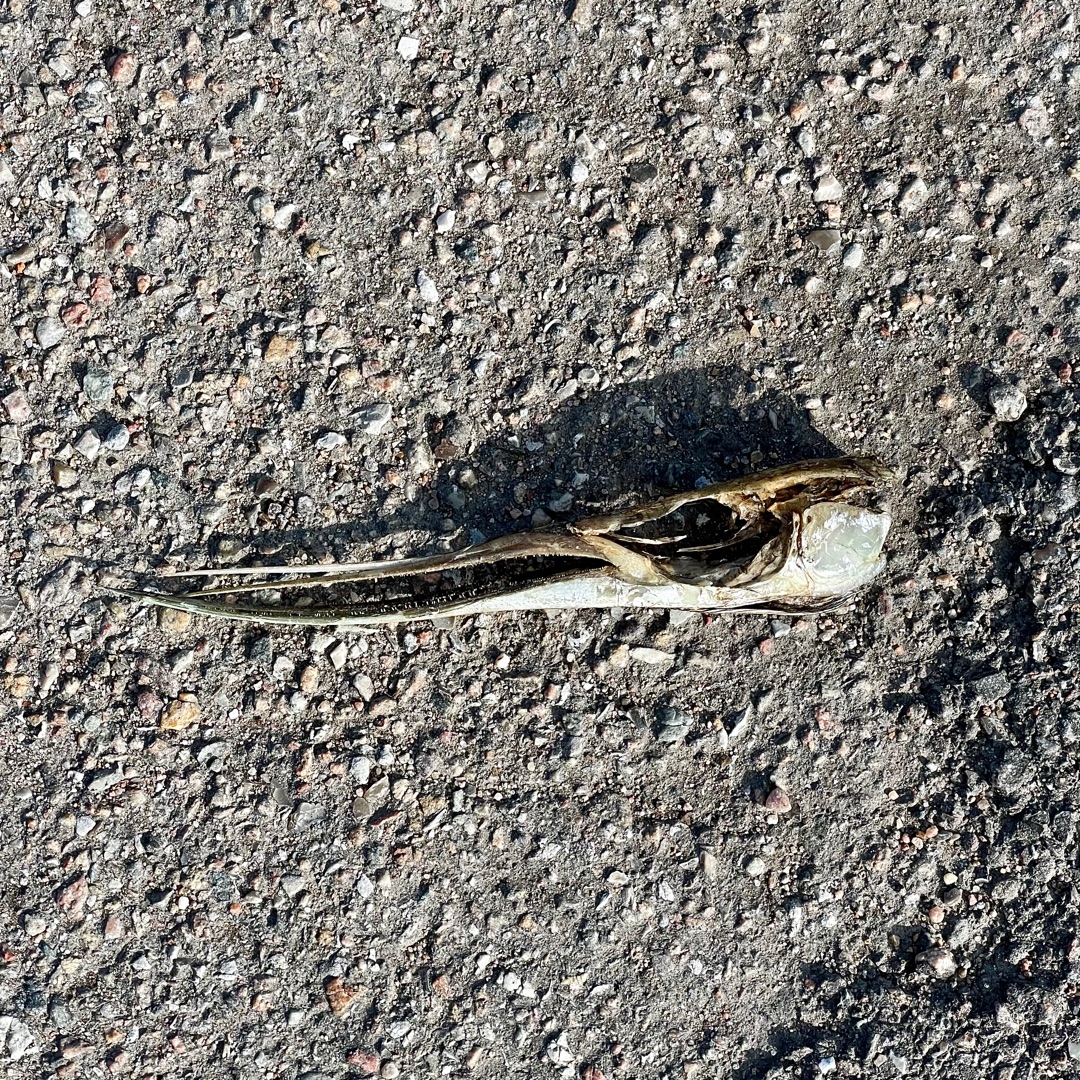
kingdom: Animalia
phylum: Chordata
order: Beloniformes
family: Belonidae
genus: Belone
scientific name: Belone belone
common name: Hornfisk
